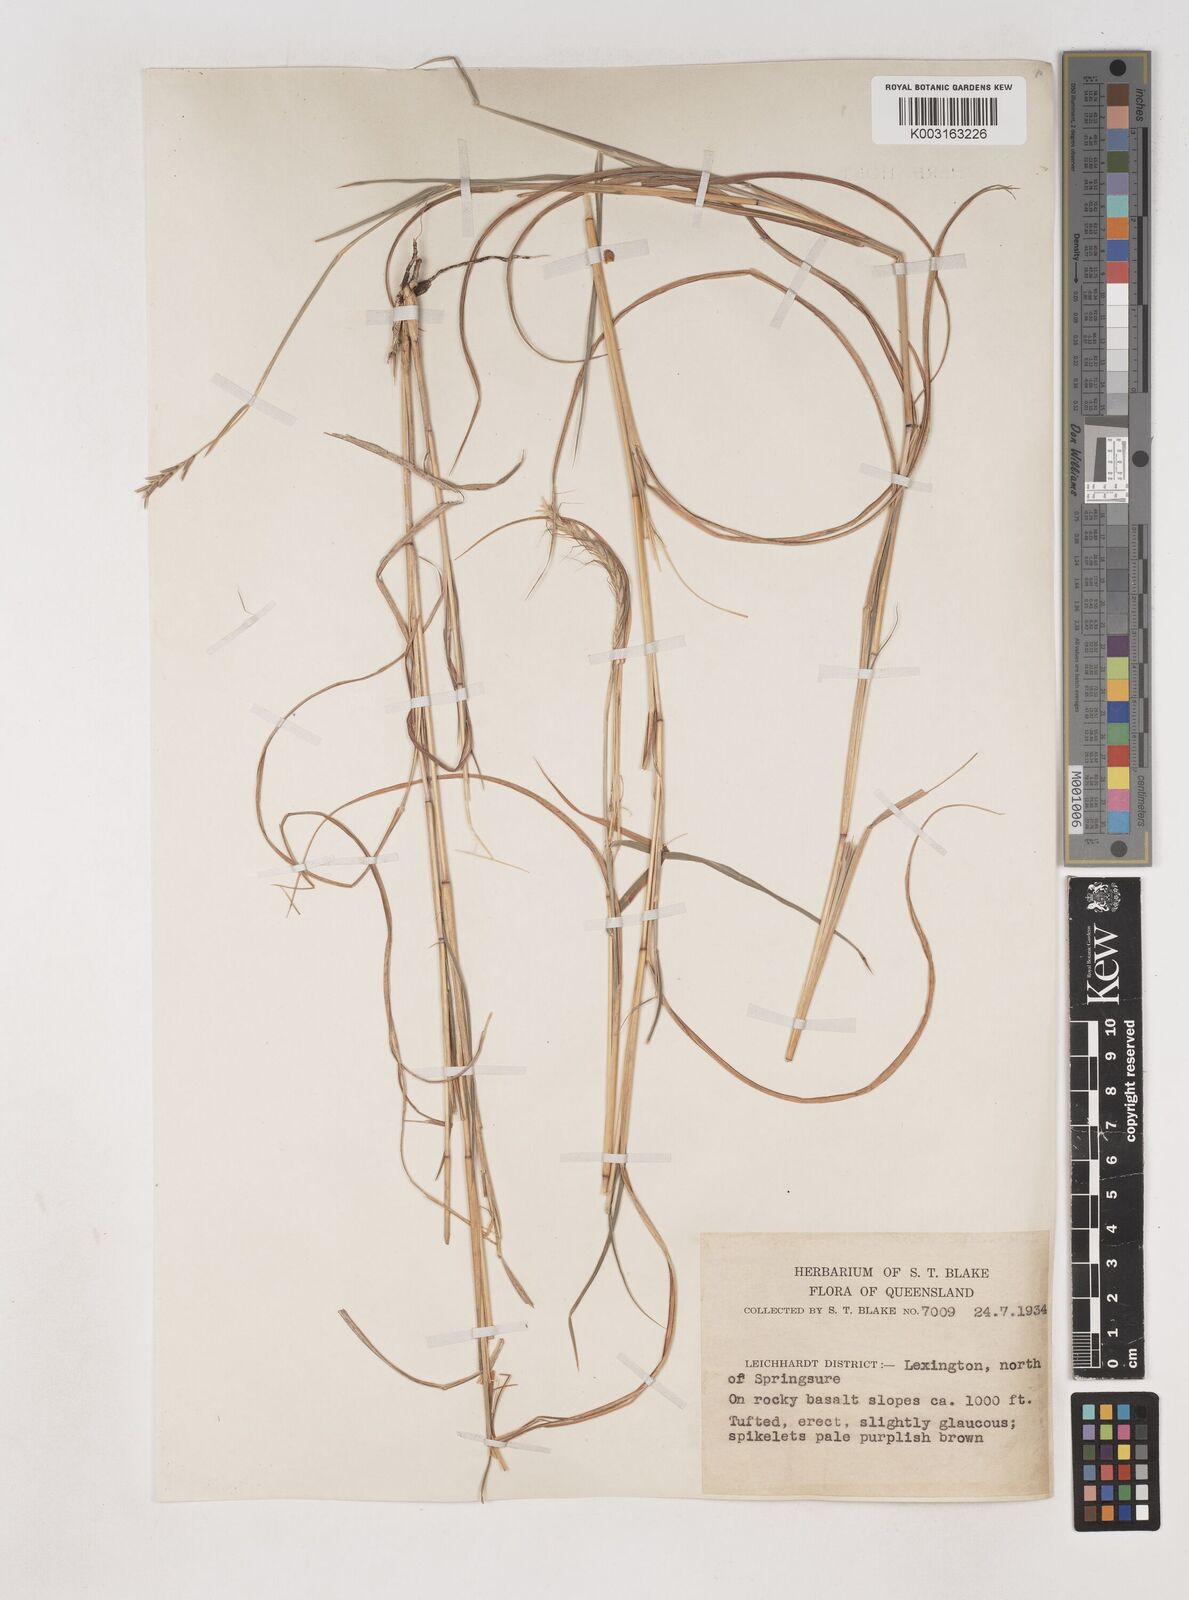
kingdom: Plantae
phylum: Tracheophyta
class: Liliopsida
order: Poales
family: Poaceae
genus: Dichanthium
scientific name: Dichanthium fecundum
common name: Bundle-bundle
